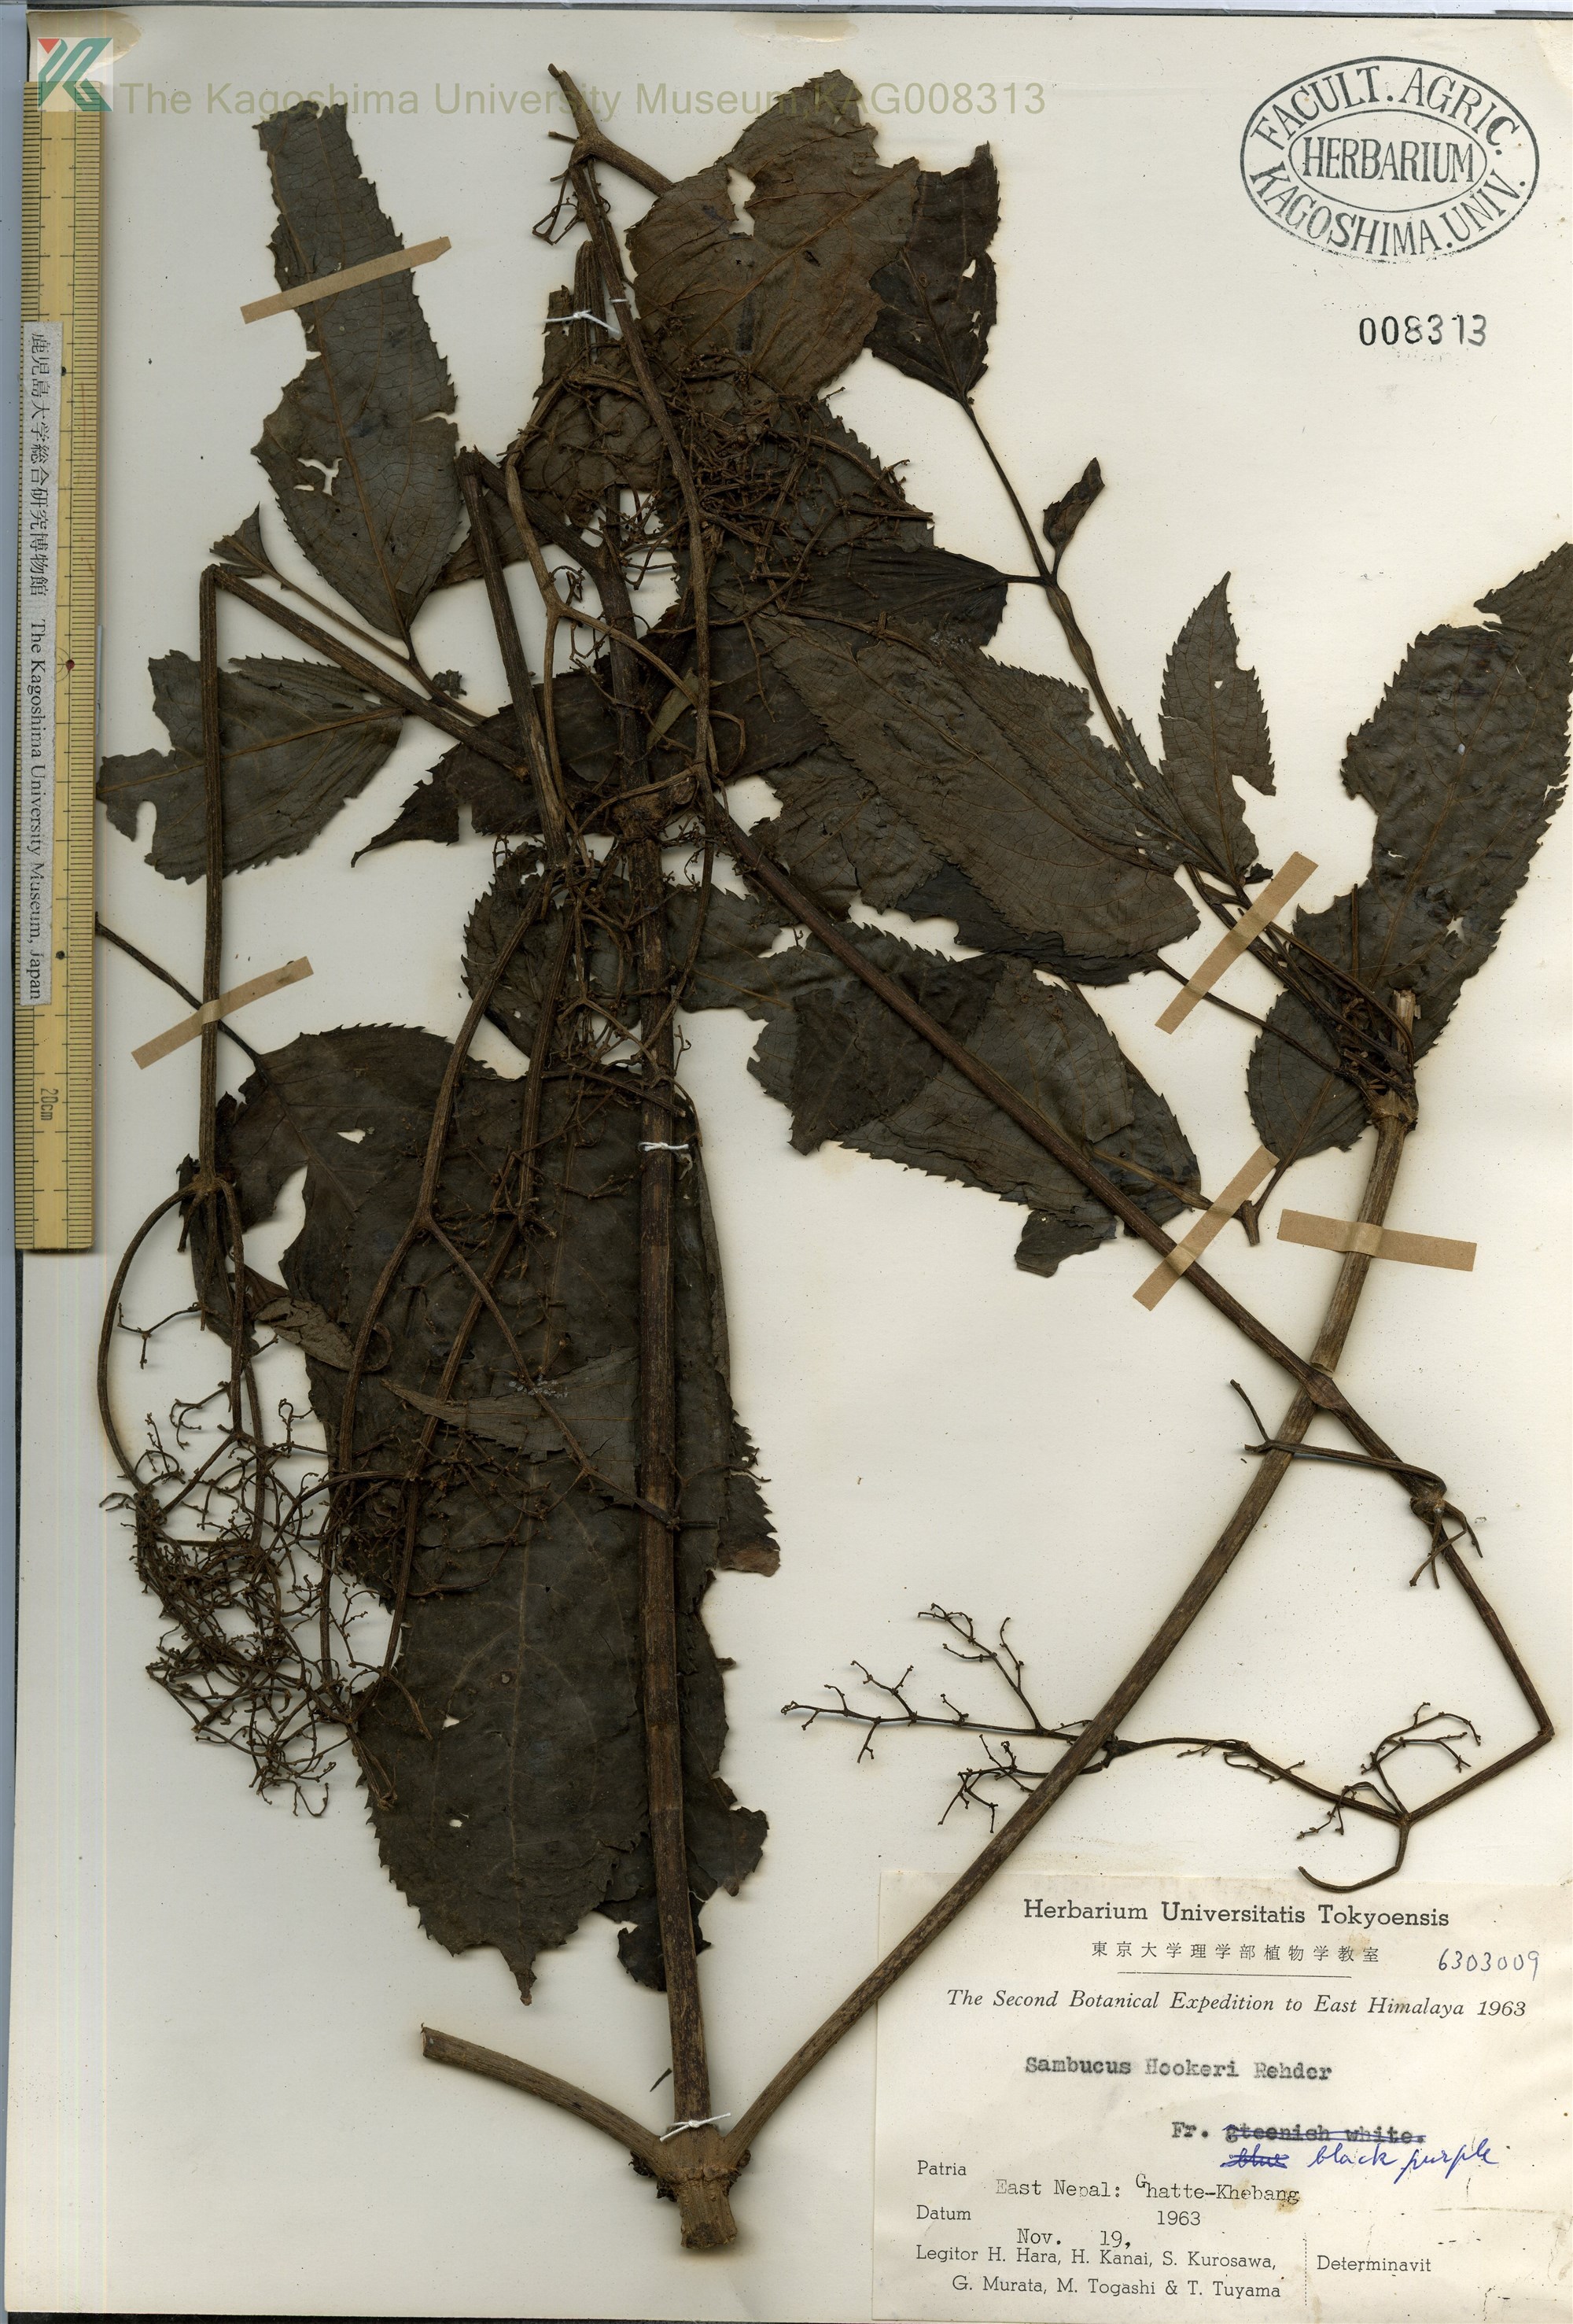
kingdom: Plantae
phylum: Tracheophyta
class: Magnoliopsida
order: Dipsacales
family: Viburnaceae
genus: Sambucus
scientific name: Sambucus javanica
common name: Chinese elder
